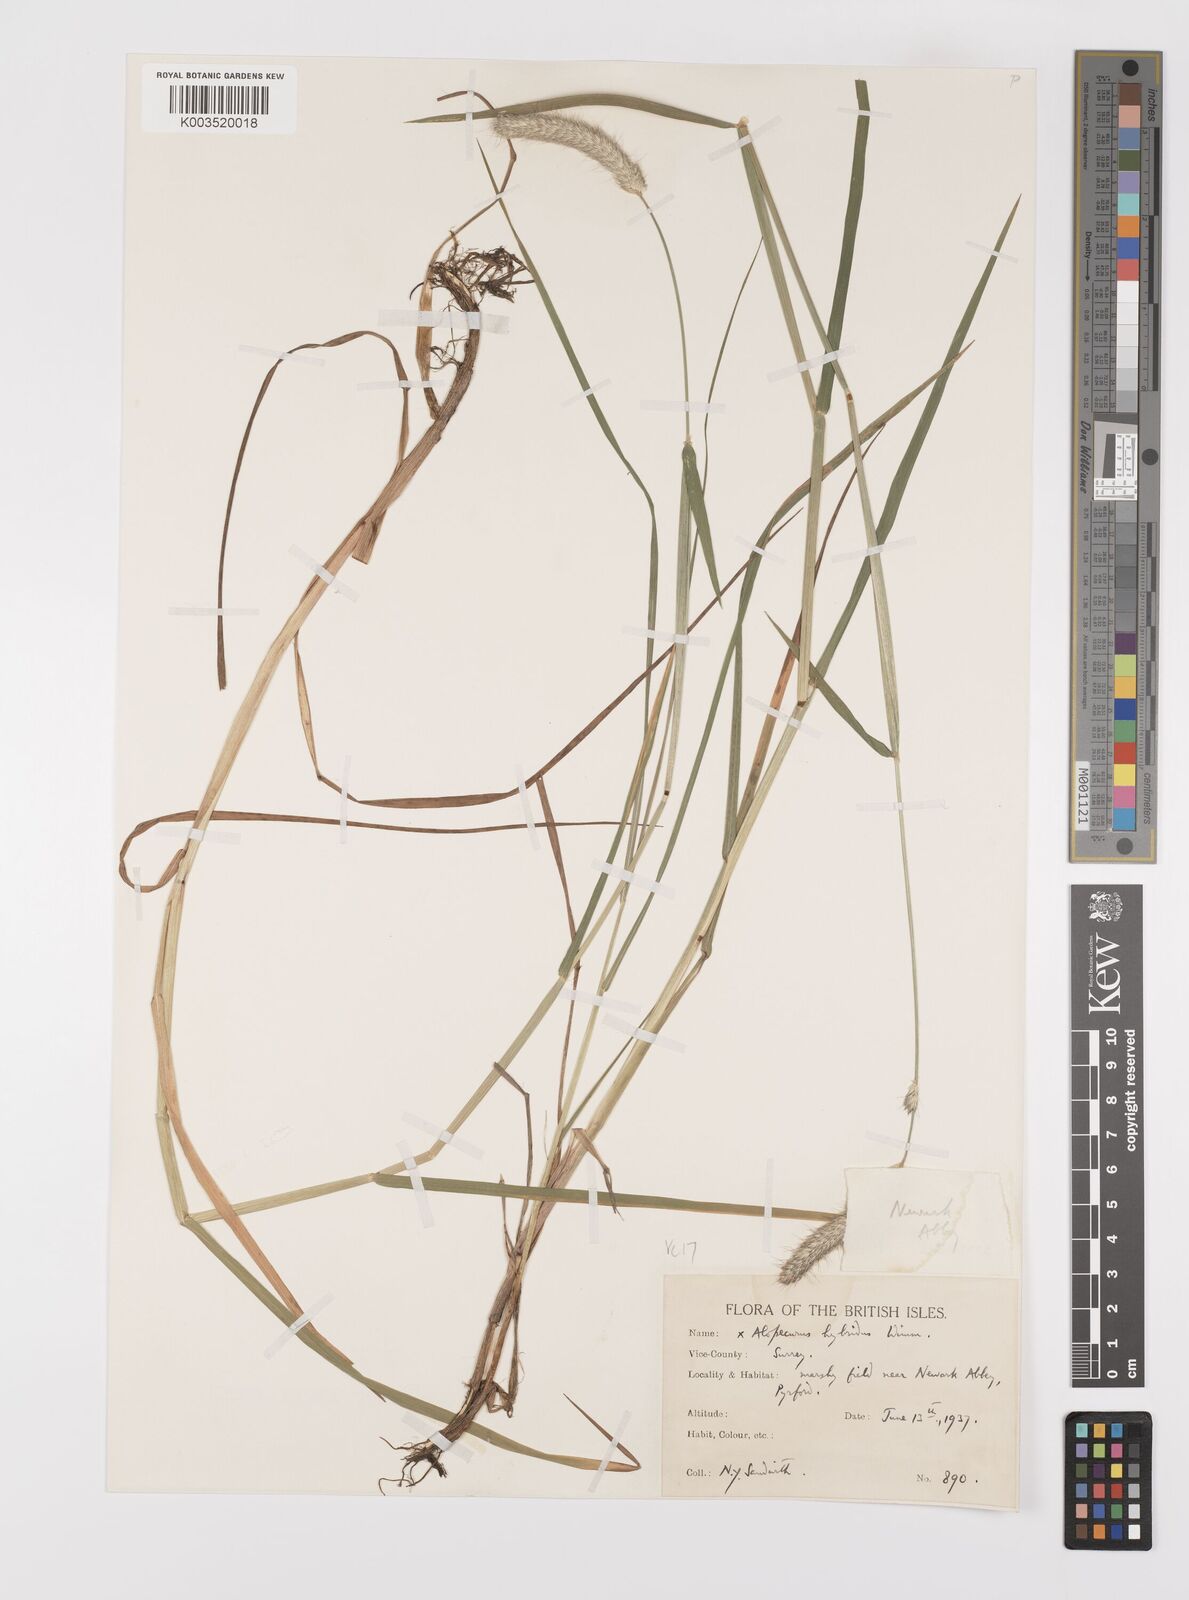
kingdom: Plantae
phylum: Tracheophyta
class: Liliopsida
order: Poales
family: Poaceae
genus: Alopecurus
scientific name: Alopecurus brachystylus
